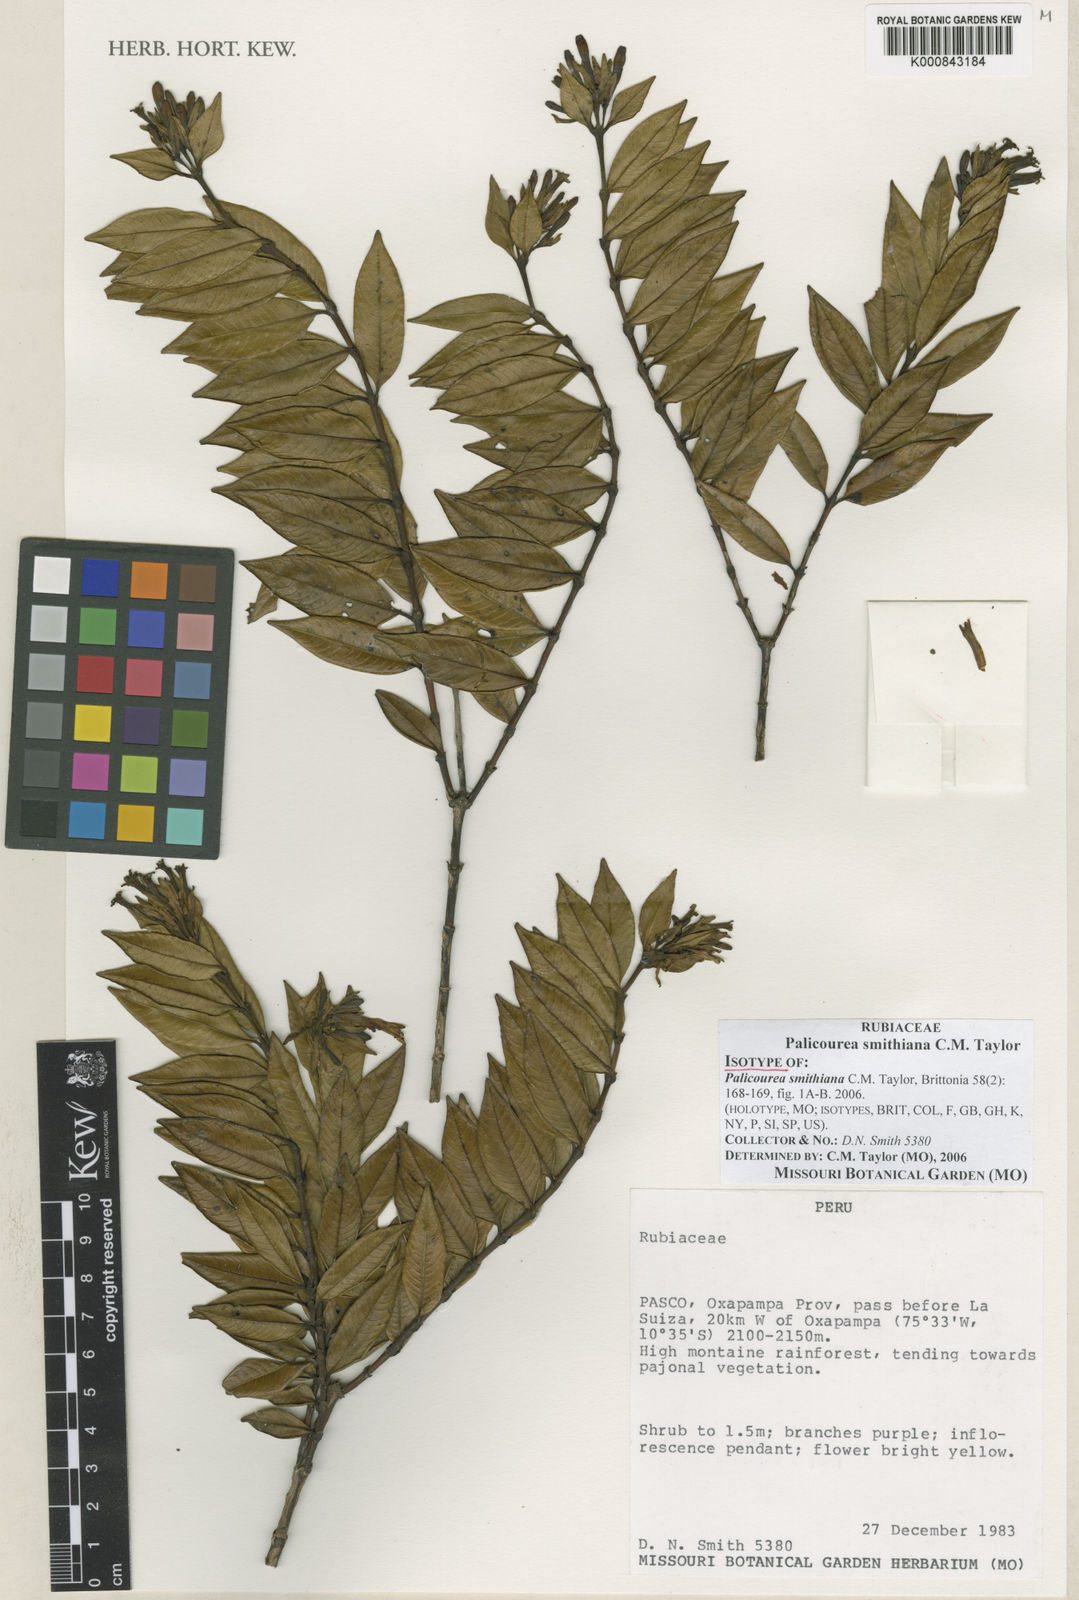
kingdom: Plantae
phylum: Tracheophyta
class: Magnoliopsida
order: Gentianales
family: Rubiaceae
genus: Palicourea
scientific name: Palicourea smithiana
